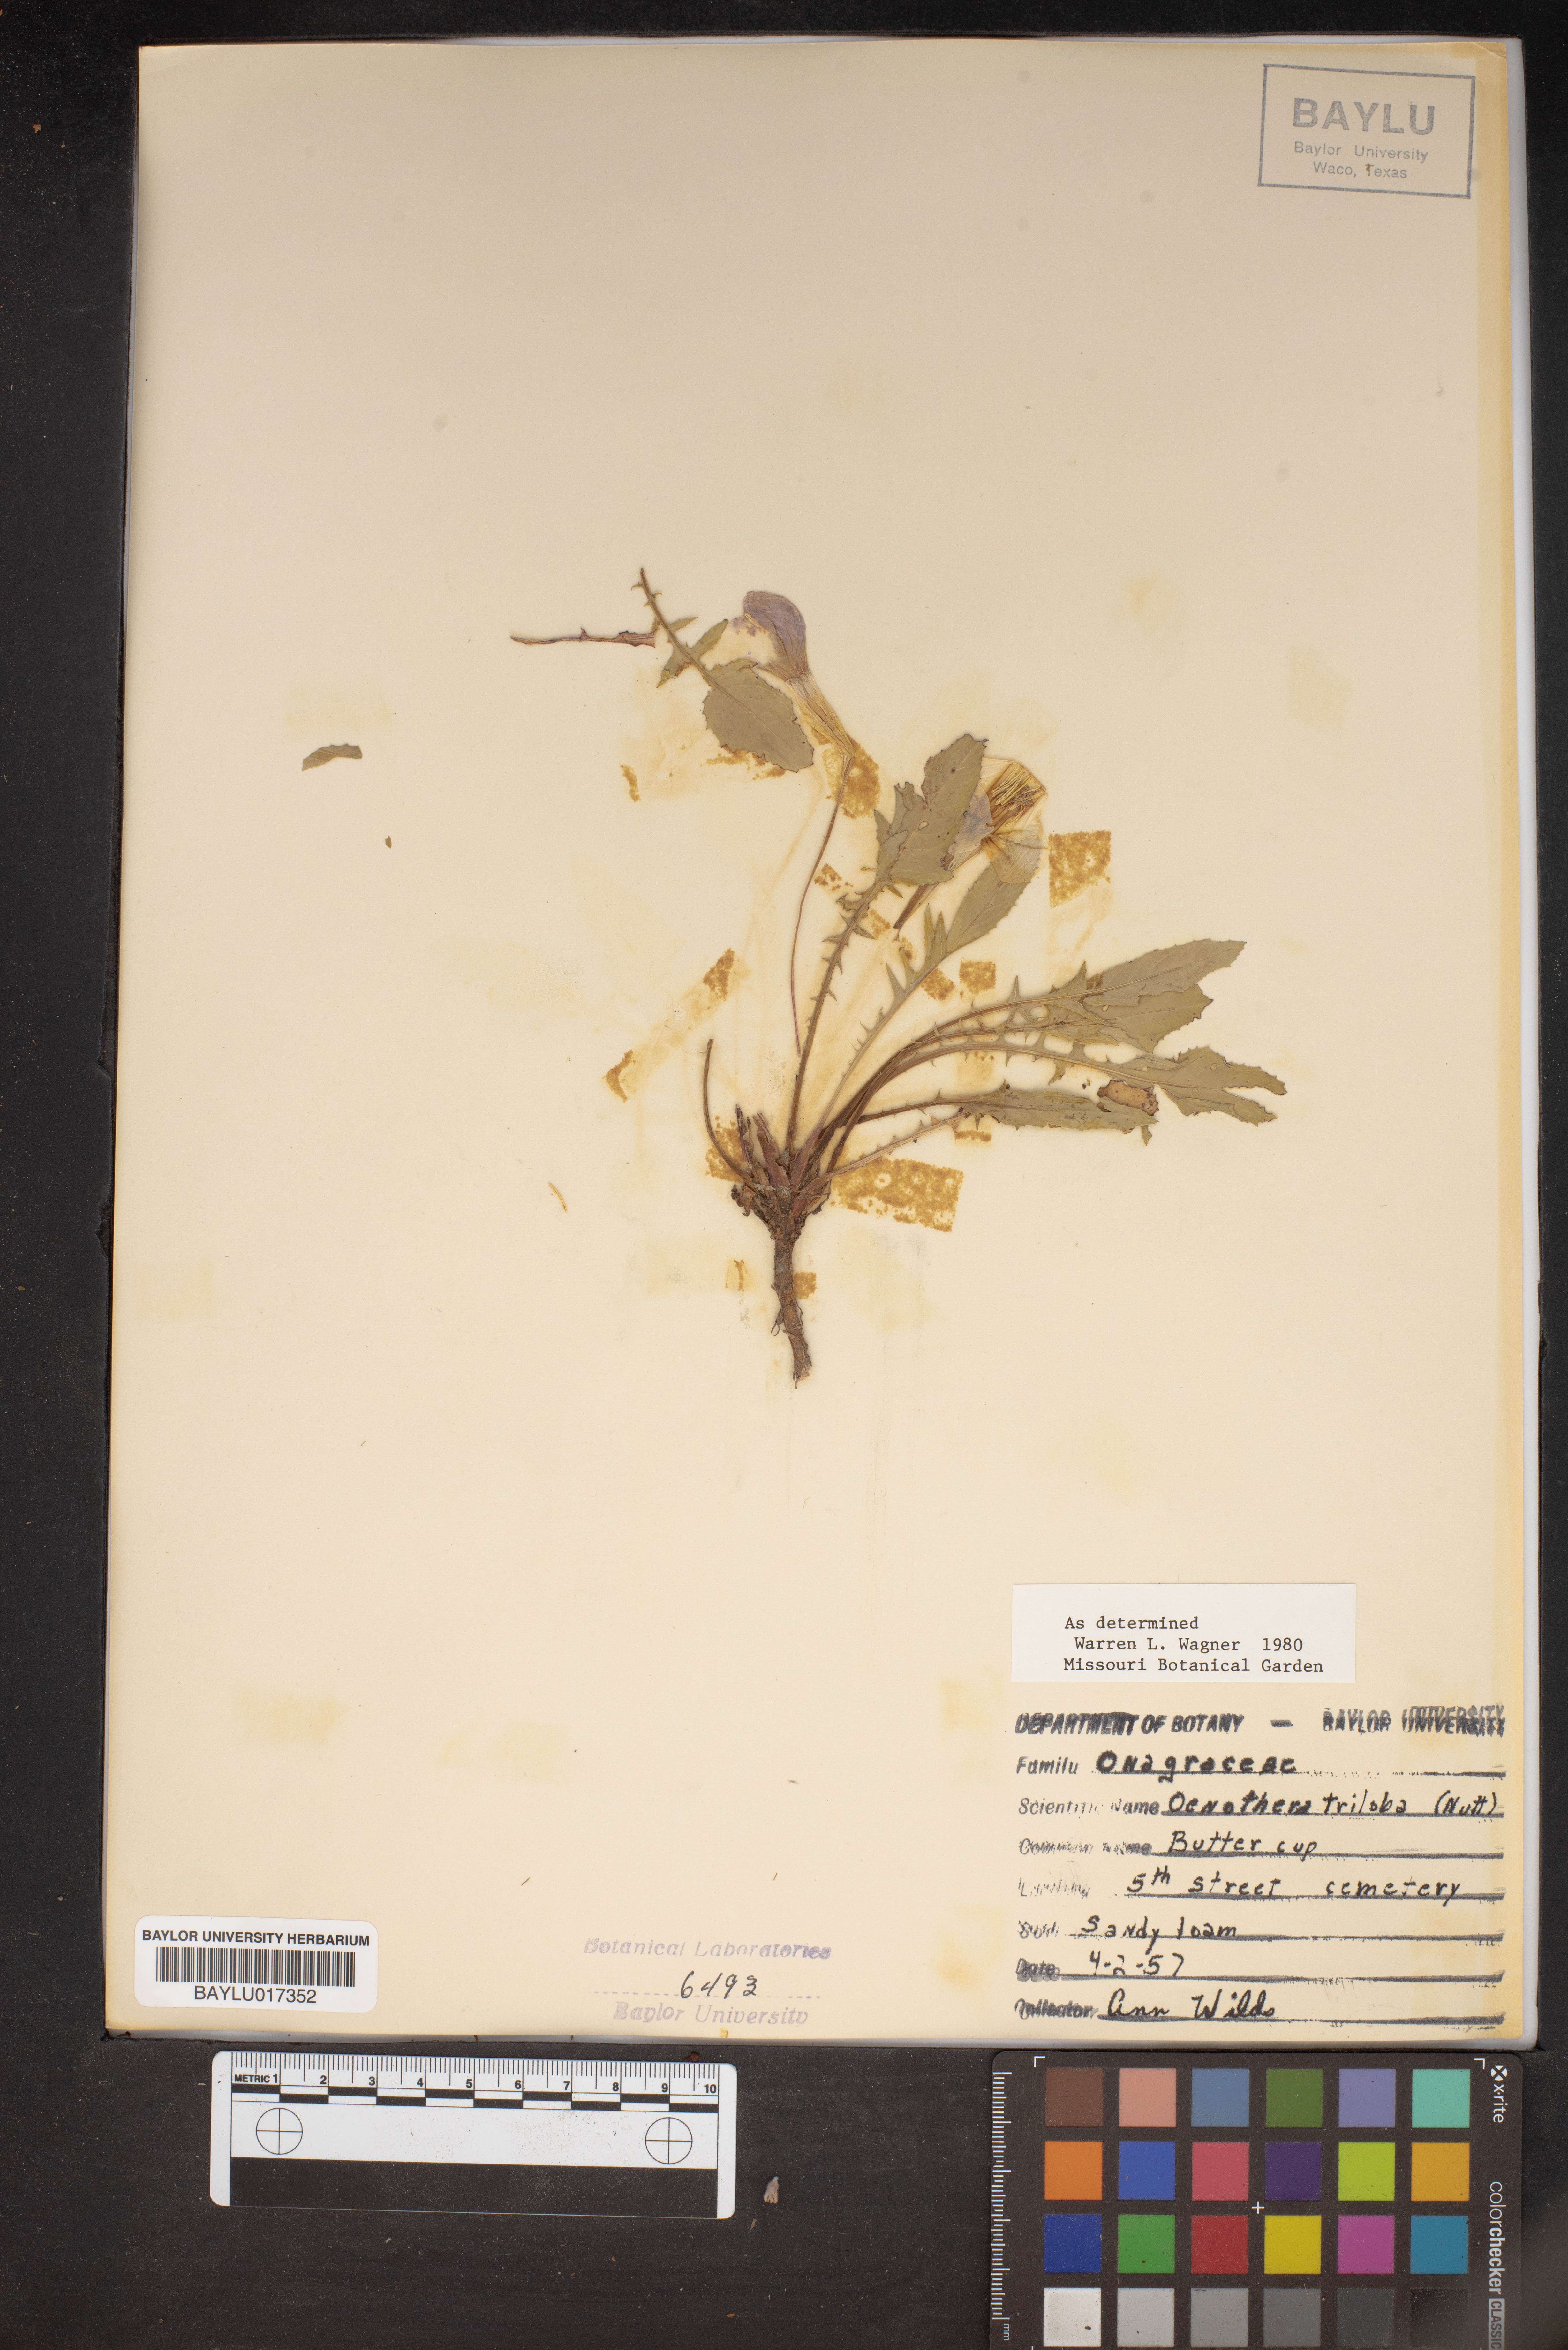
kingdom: Plantae
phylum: Tracheophyta
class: Magnoliopsida
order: Myrtales
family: Onagraceae
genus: Oenothera
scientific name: Oenothera triloba
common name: Sessile evening-primrose
